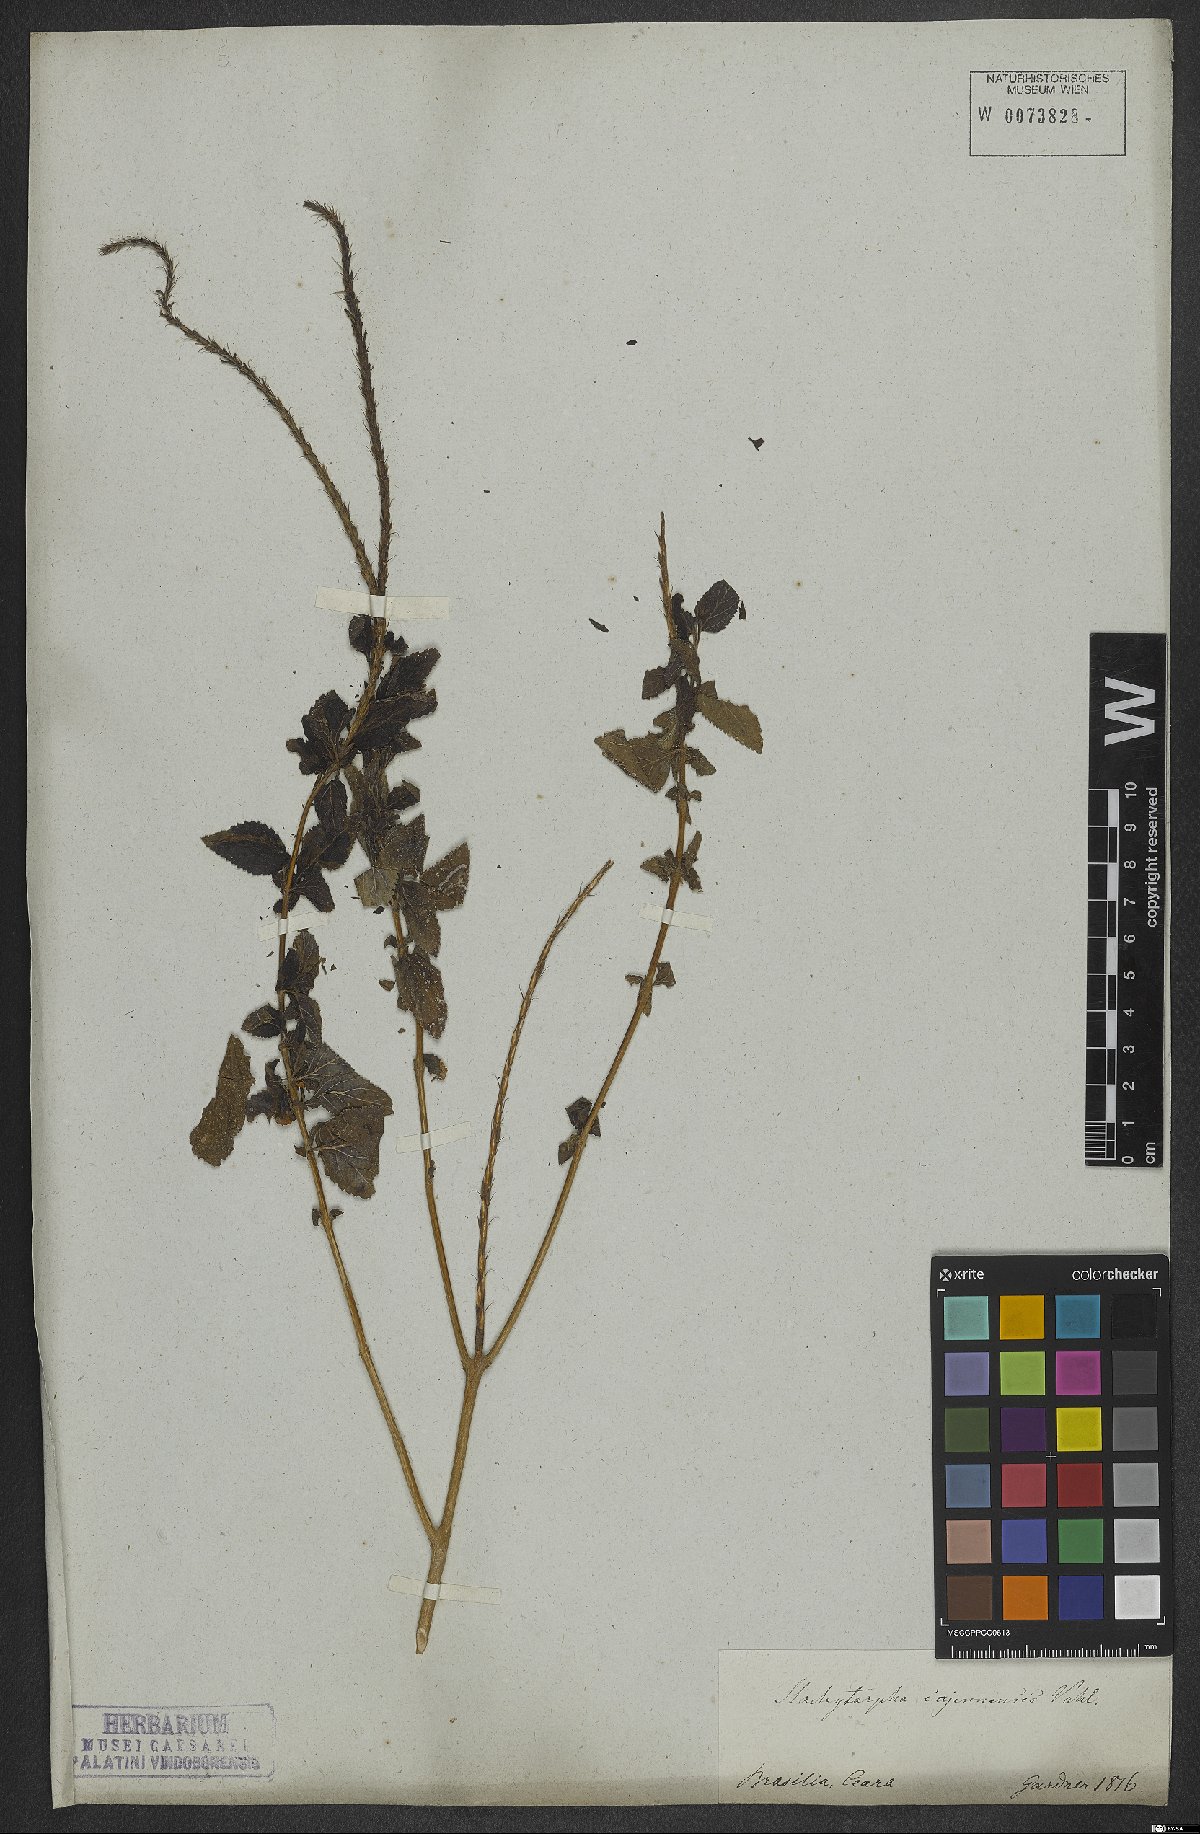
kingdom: Plantae
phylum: Tracheophyta
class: Magnoliopsida
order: Lamiales
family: Verbenaceae
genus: Stachytarpheta
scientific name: Stachytarpheta cayennensis
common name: Cayenne porterweed
